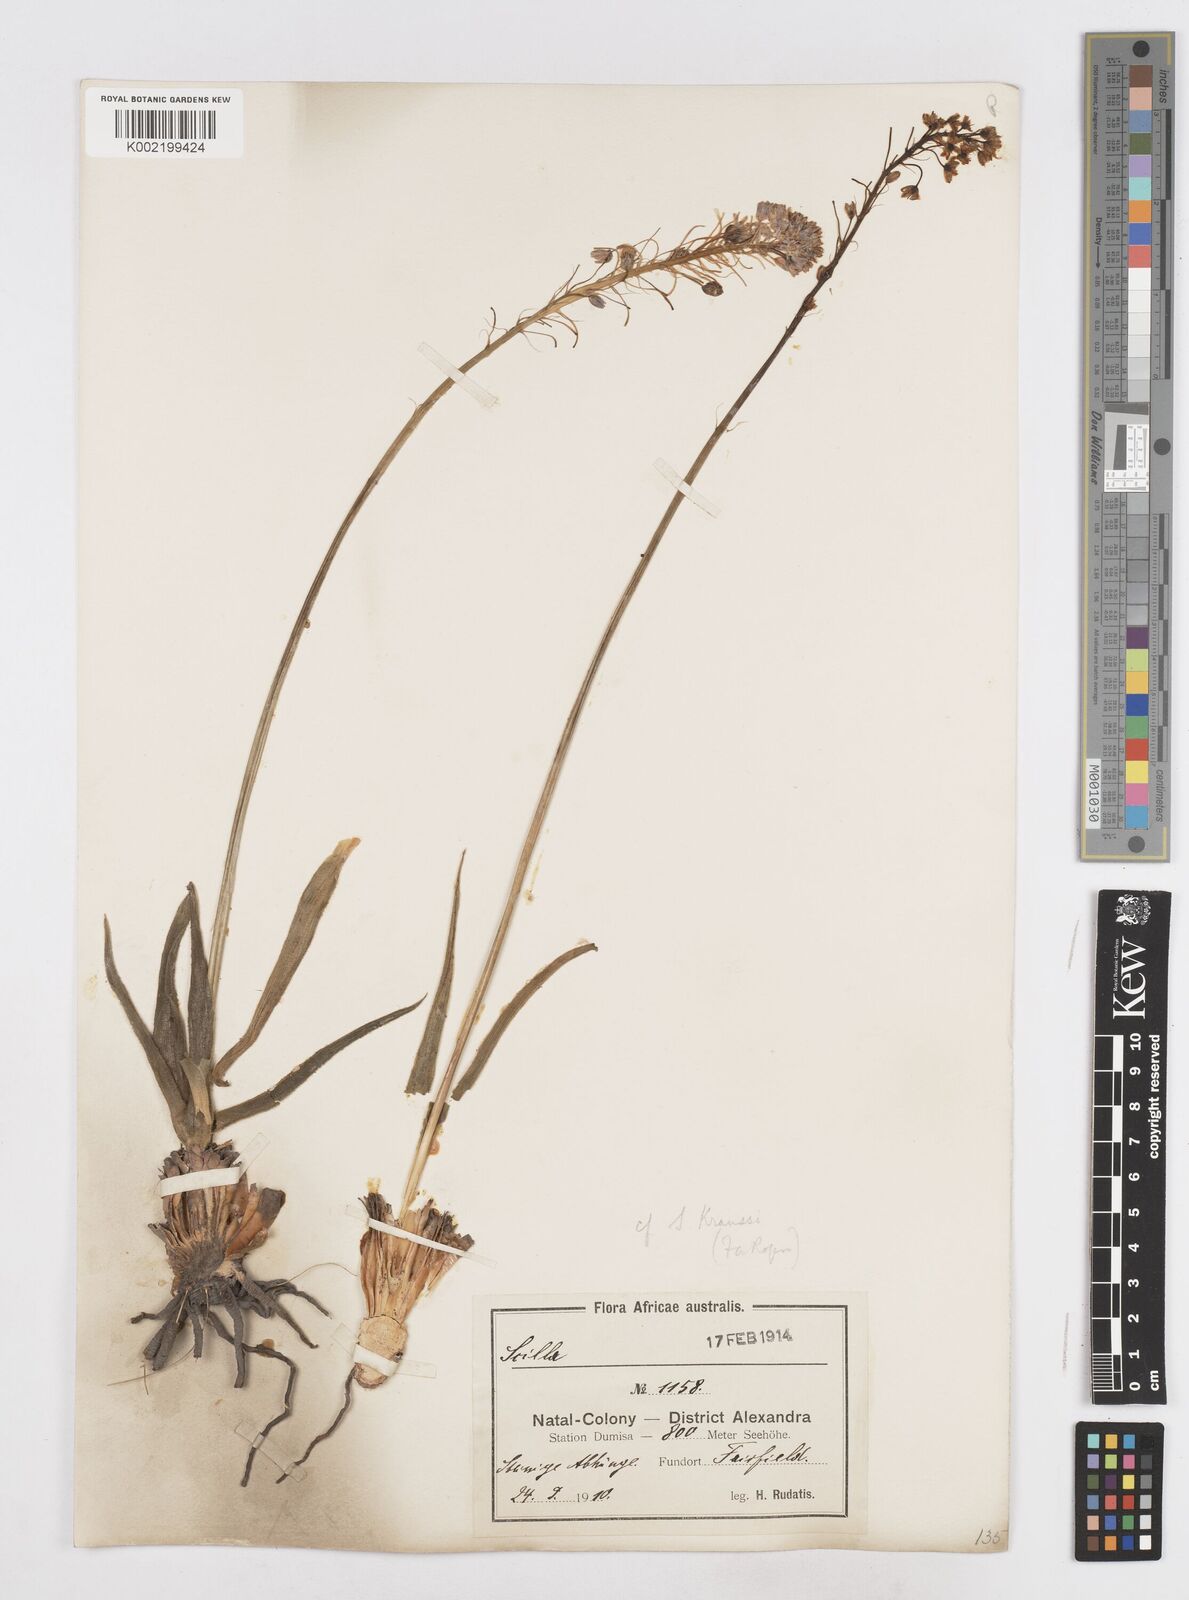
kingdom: Plantae
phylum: Tracheophyta
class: Liliopsida
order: Asparagales
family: Asparagaceae
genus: Schizocarphus
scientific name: Schizocarphus nervosus
